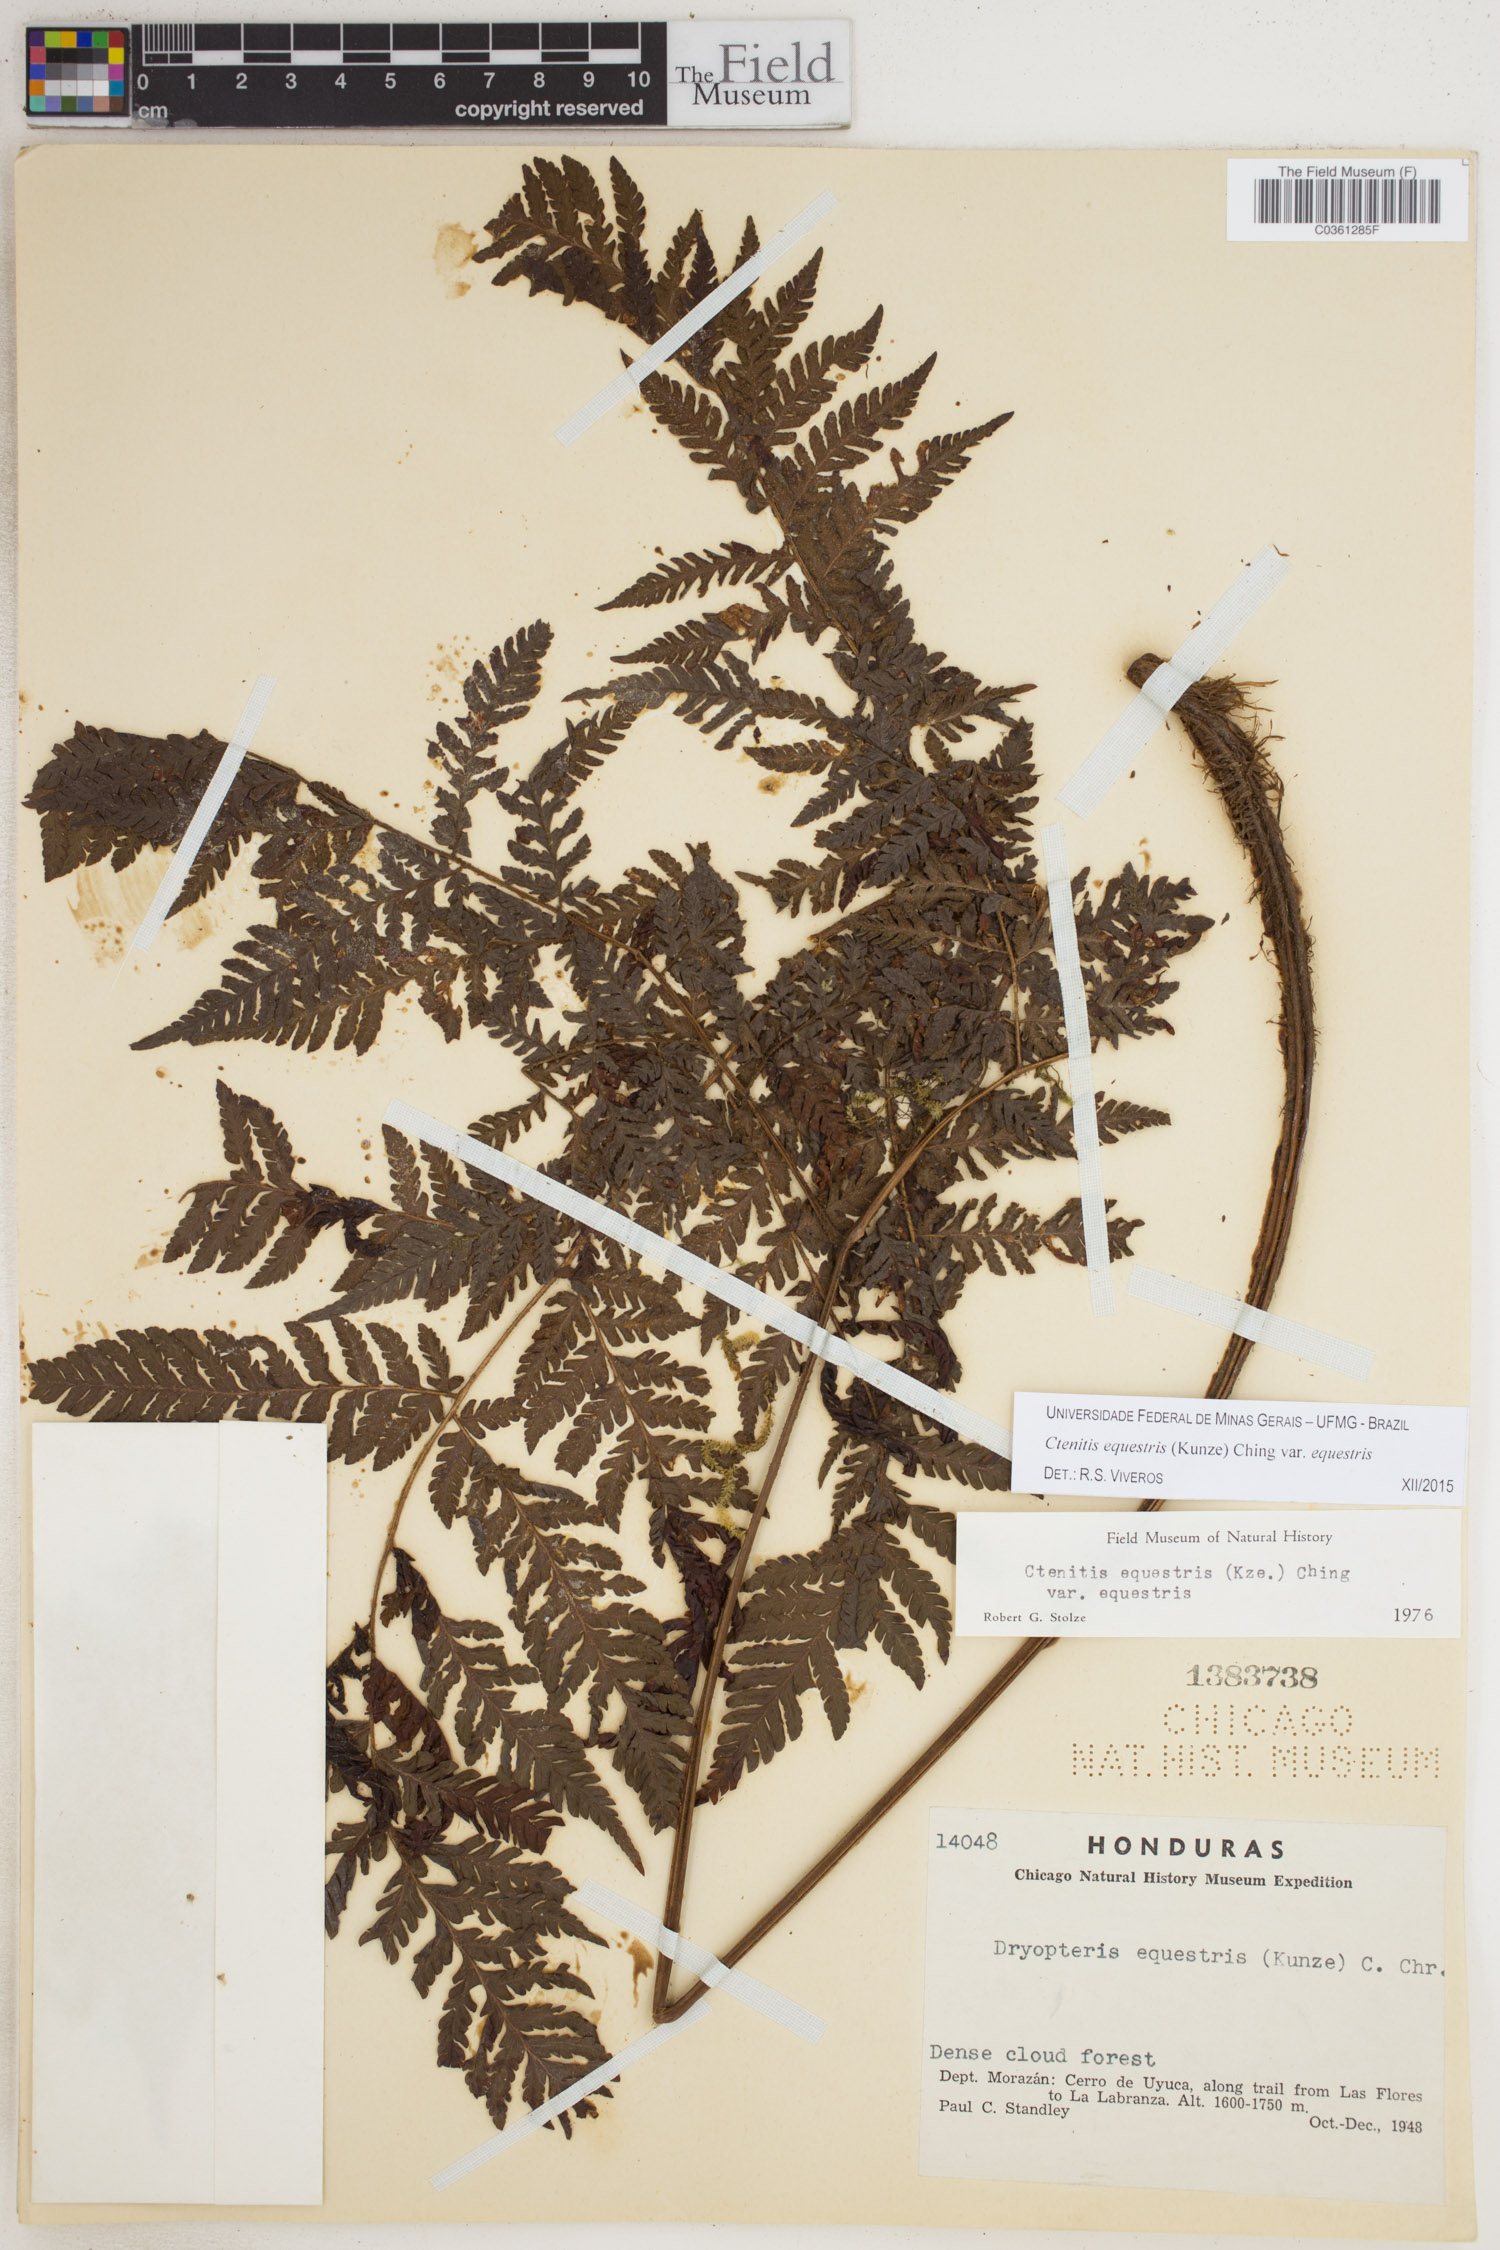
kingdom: Plantae
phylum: Tracheophyta
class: Polypodiopsida
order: Polypodiales
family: Dryopteridaceae
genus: Ctenitis
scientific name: Ctenitis equestris
